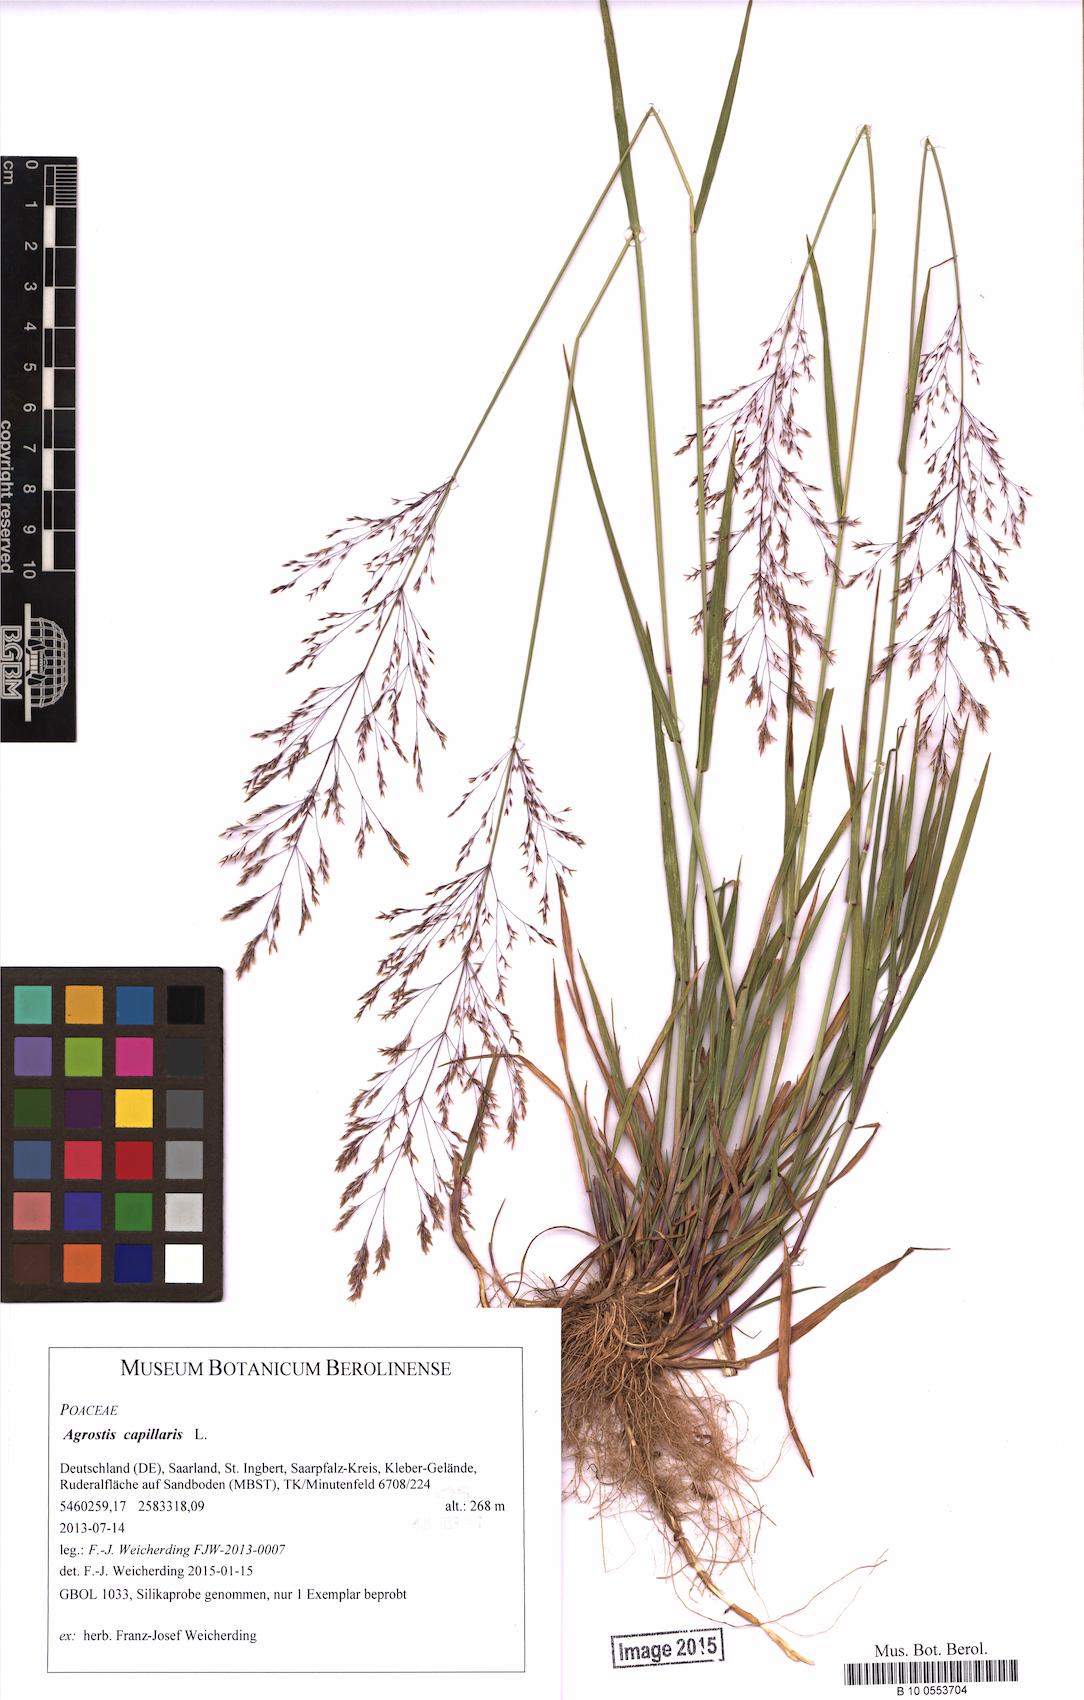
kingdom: Plantae
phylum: Tracheophyta
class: Liliopsida
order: Poales
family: Poaceae
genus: Agrostis
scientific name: Agrostis capillaris
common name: Colonial bentgrass
